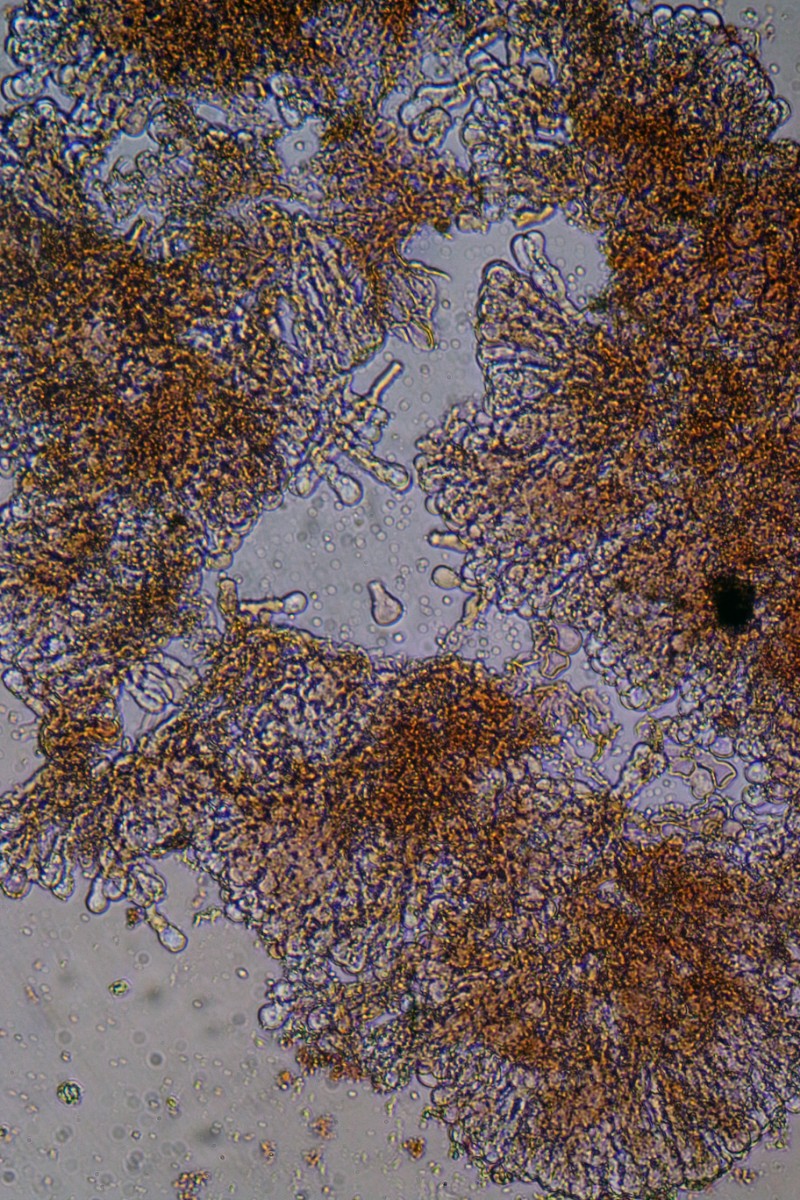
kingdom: Fungi
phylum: Basidiomycota
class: Agaricomycetes
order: Polyporales
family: Meruliaceae
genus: Bulbillomyces
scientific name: Bulbillomyces farinosus
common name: æg-kalkskind
